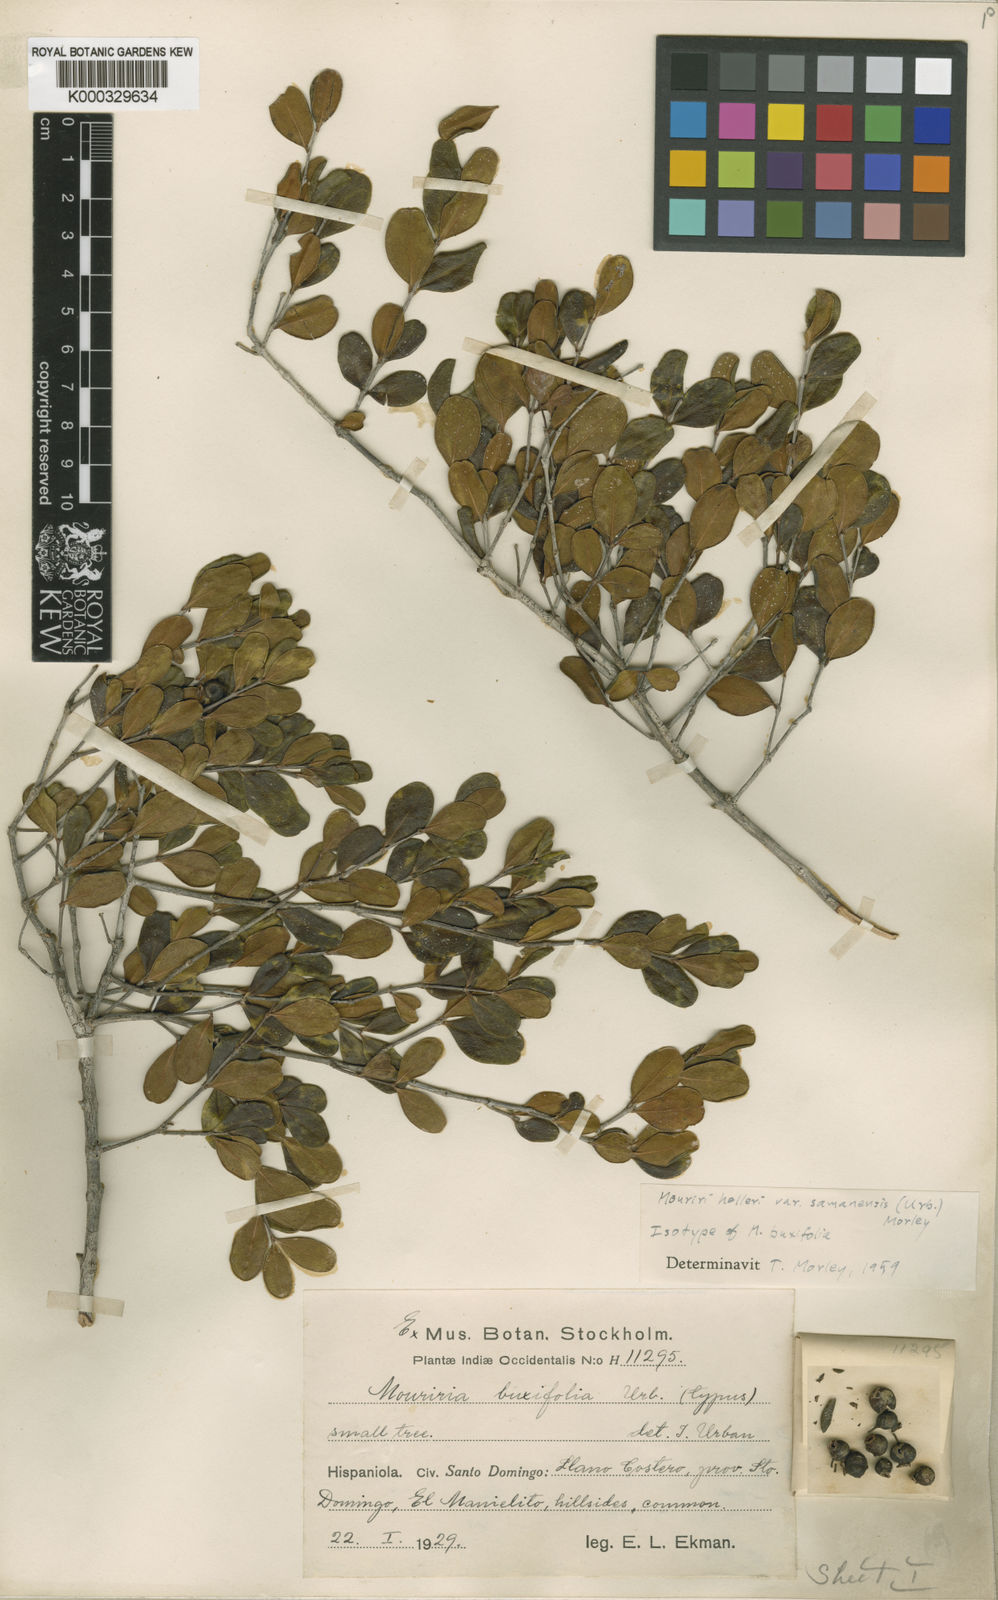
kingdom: Plantae
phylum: Tracheophyta
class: Magnoliopsida
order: Myrtales
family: Melastomataceae
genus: Mouriri
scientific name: Mouriri helleri
